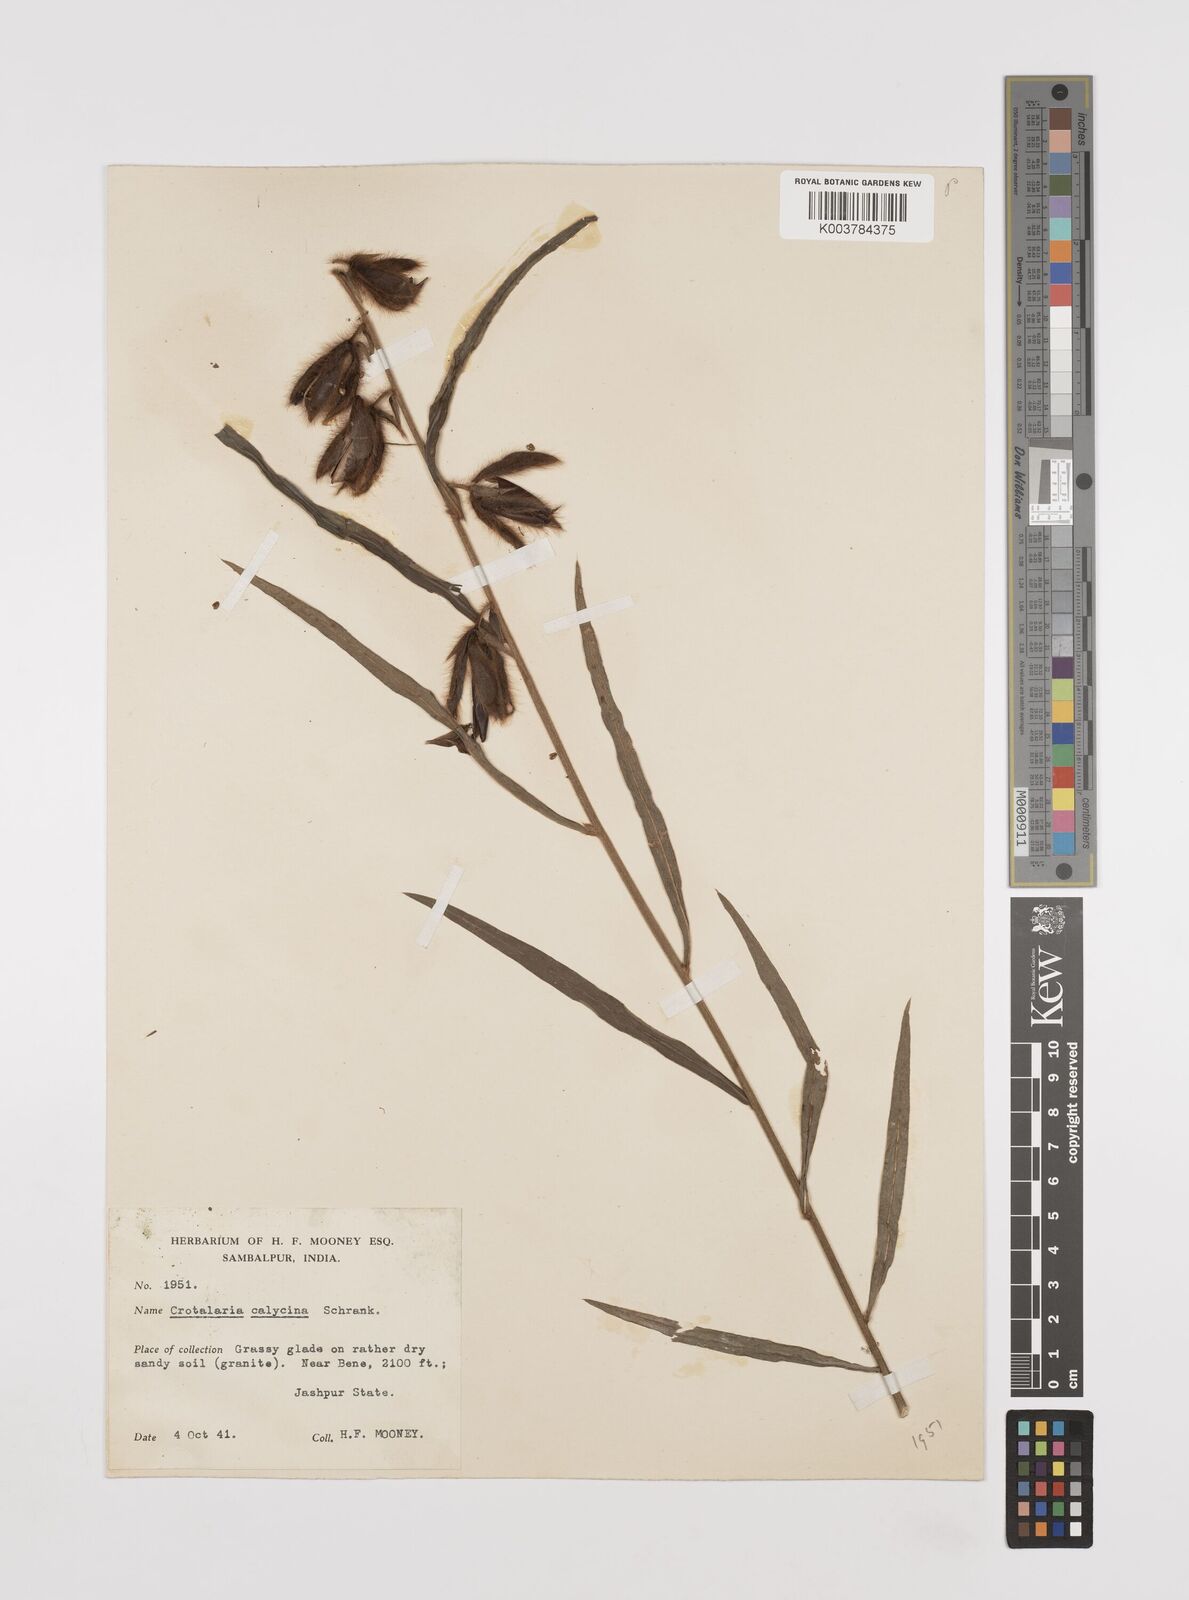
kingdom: Plantae
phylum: Tracheophyta
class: Magnoliopsida
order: Fabales
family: Fabaceae
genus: Crotalaria
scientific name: Crotalaria calycina
